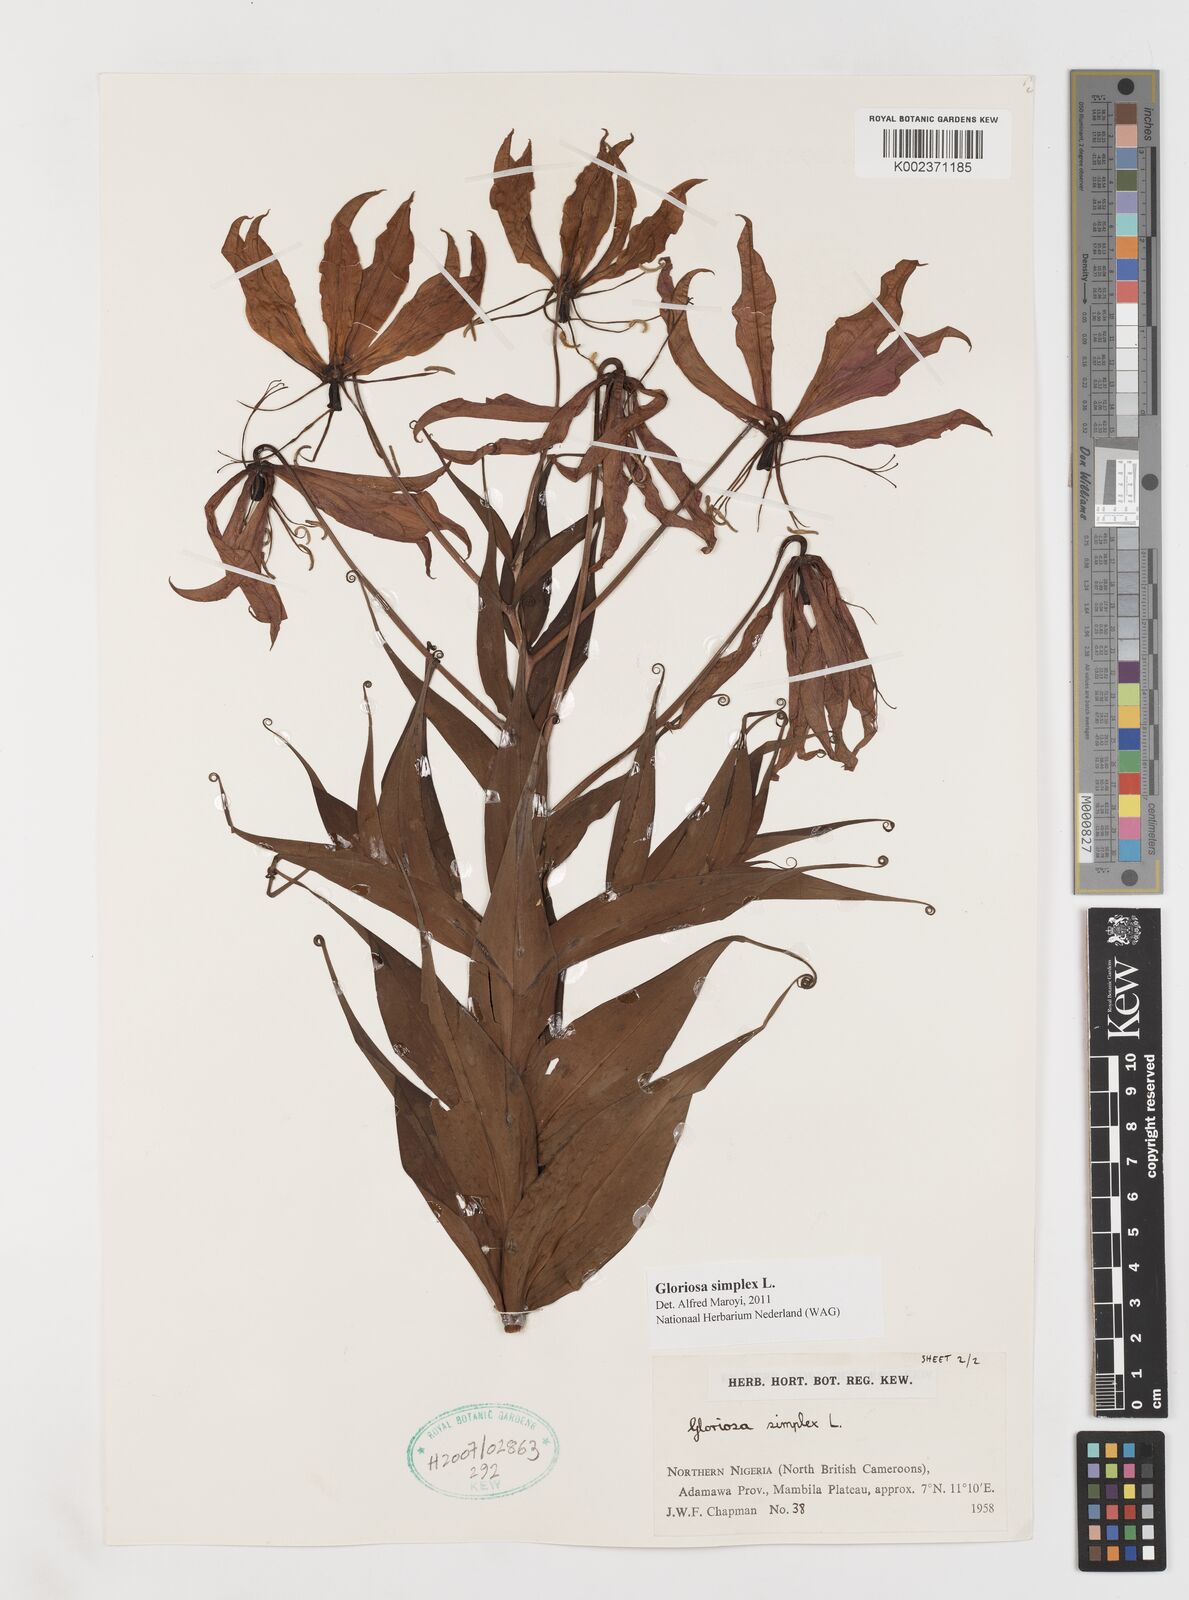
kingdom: Plantae
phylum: Tracheophyta
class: Liliopsida
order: Liliales
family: Colchicaceae
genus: Gloriosa
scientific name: Gloriosa simplex
